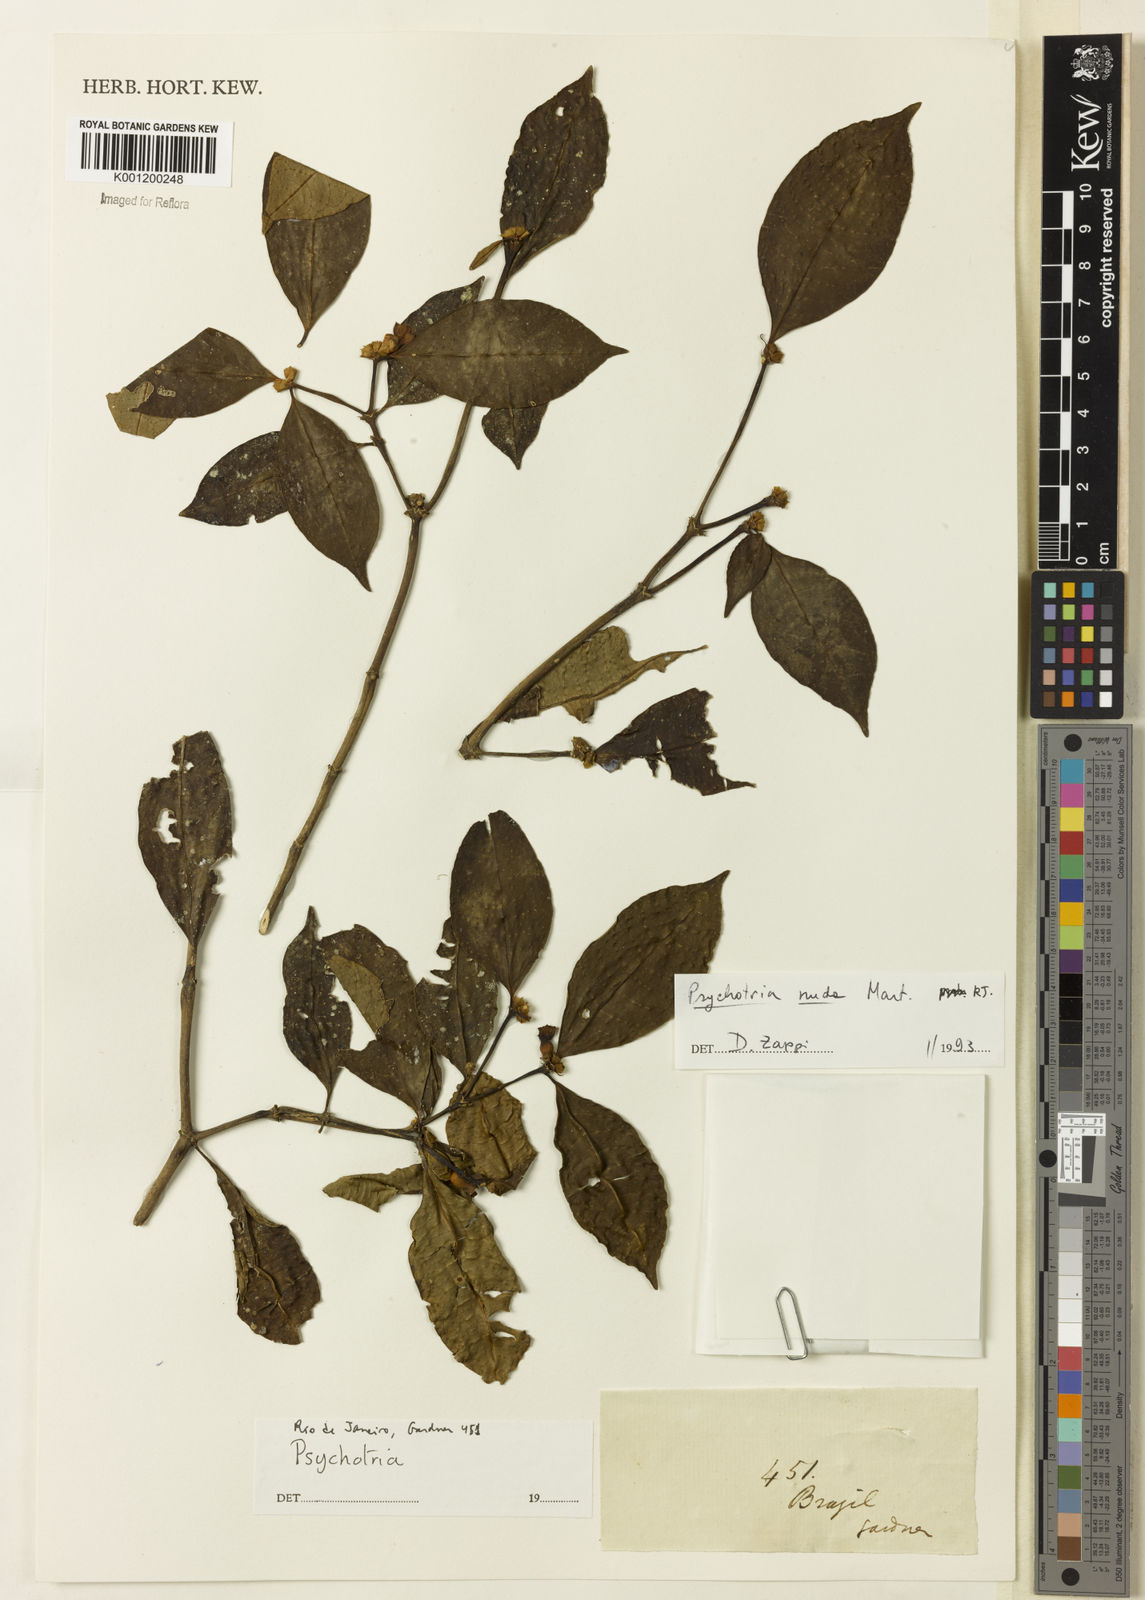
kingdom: Plantae
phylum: Tracheophyta
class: Magnoliopsida
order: Gentianales
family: Rubiaceae
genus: Psychotria
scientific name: Psychotria
